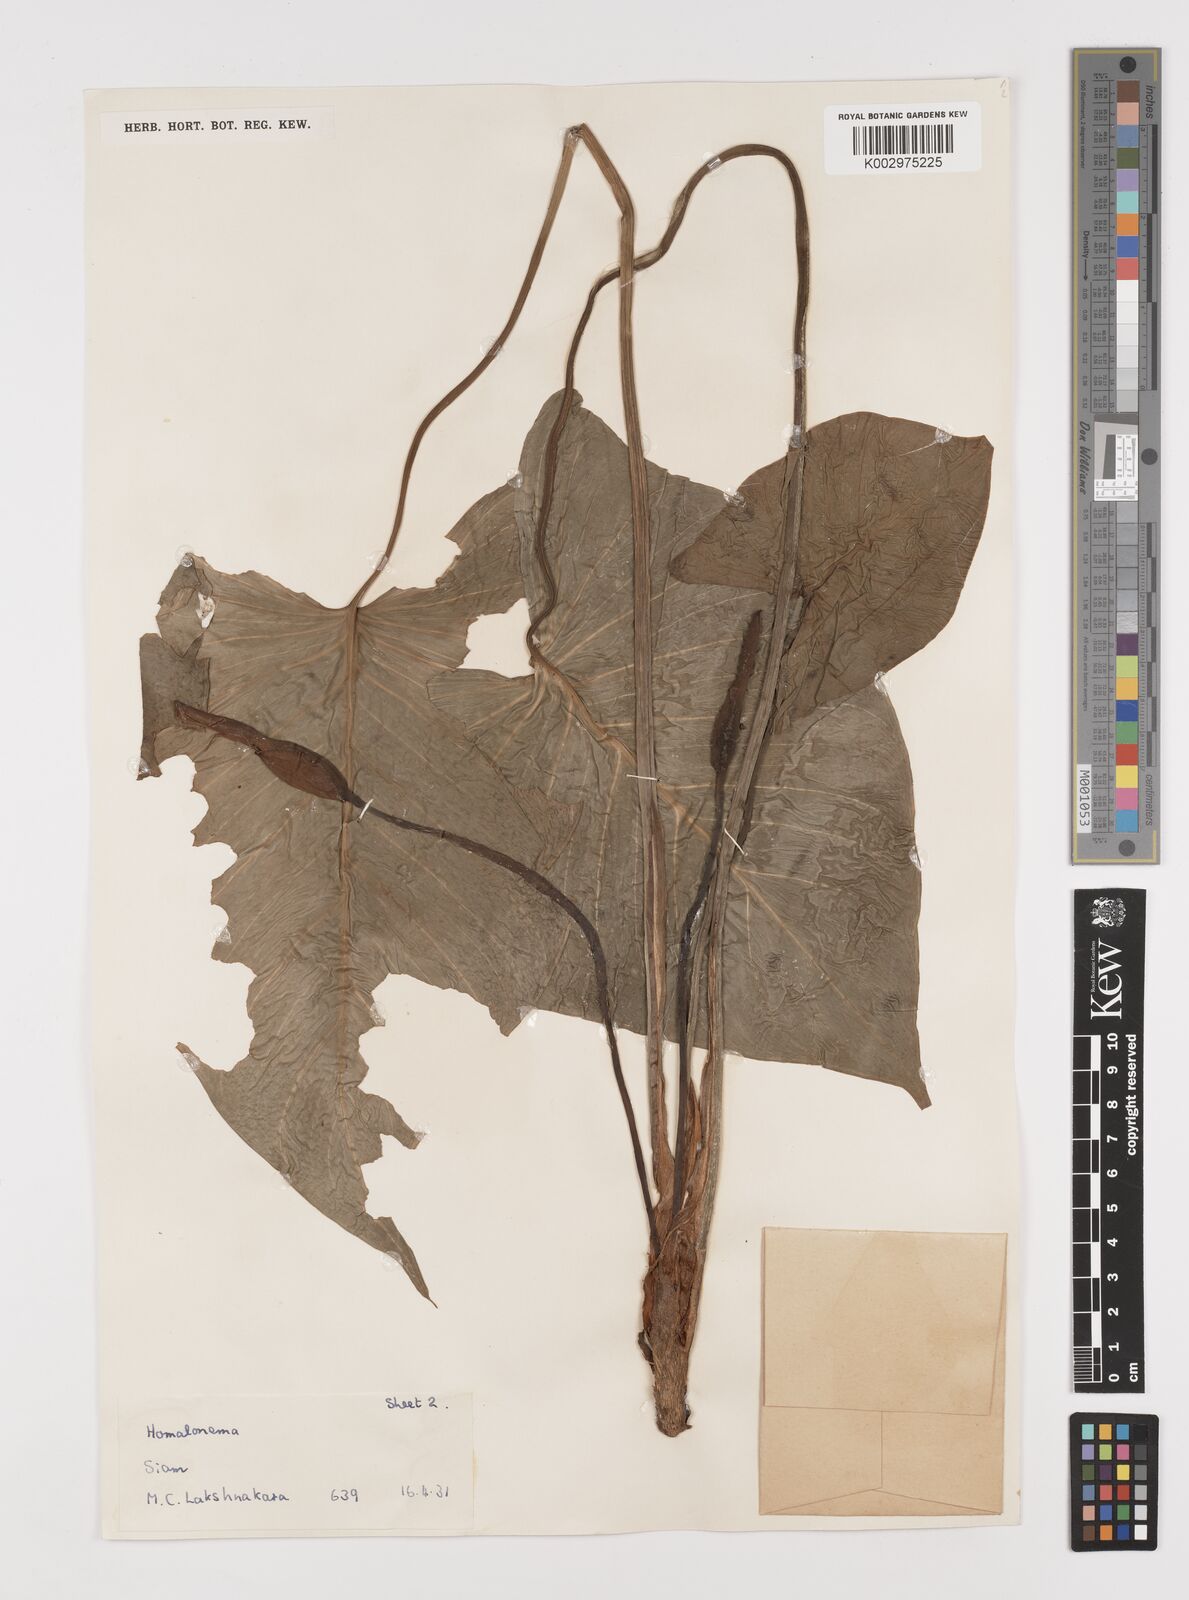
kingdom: Plantae
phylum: Tracheophyta
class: Liliopsida
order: Alismatales
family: Araceae
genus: Homalomena
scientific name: Homalomena rostrata
